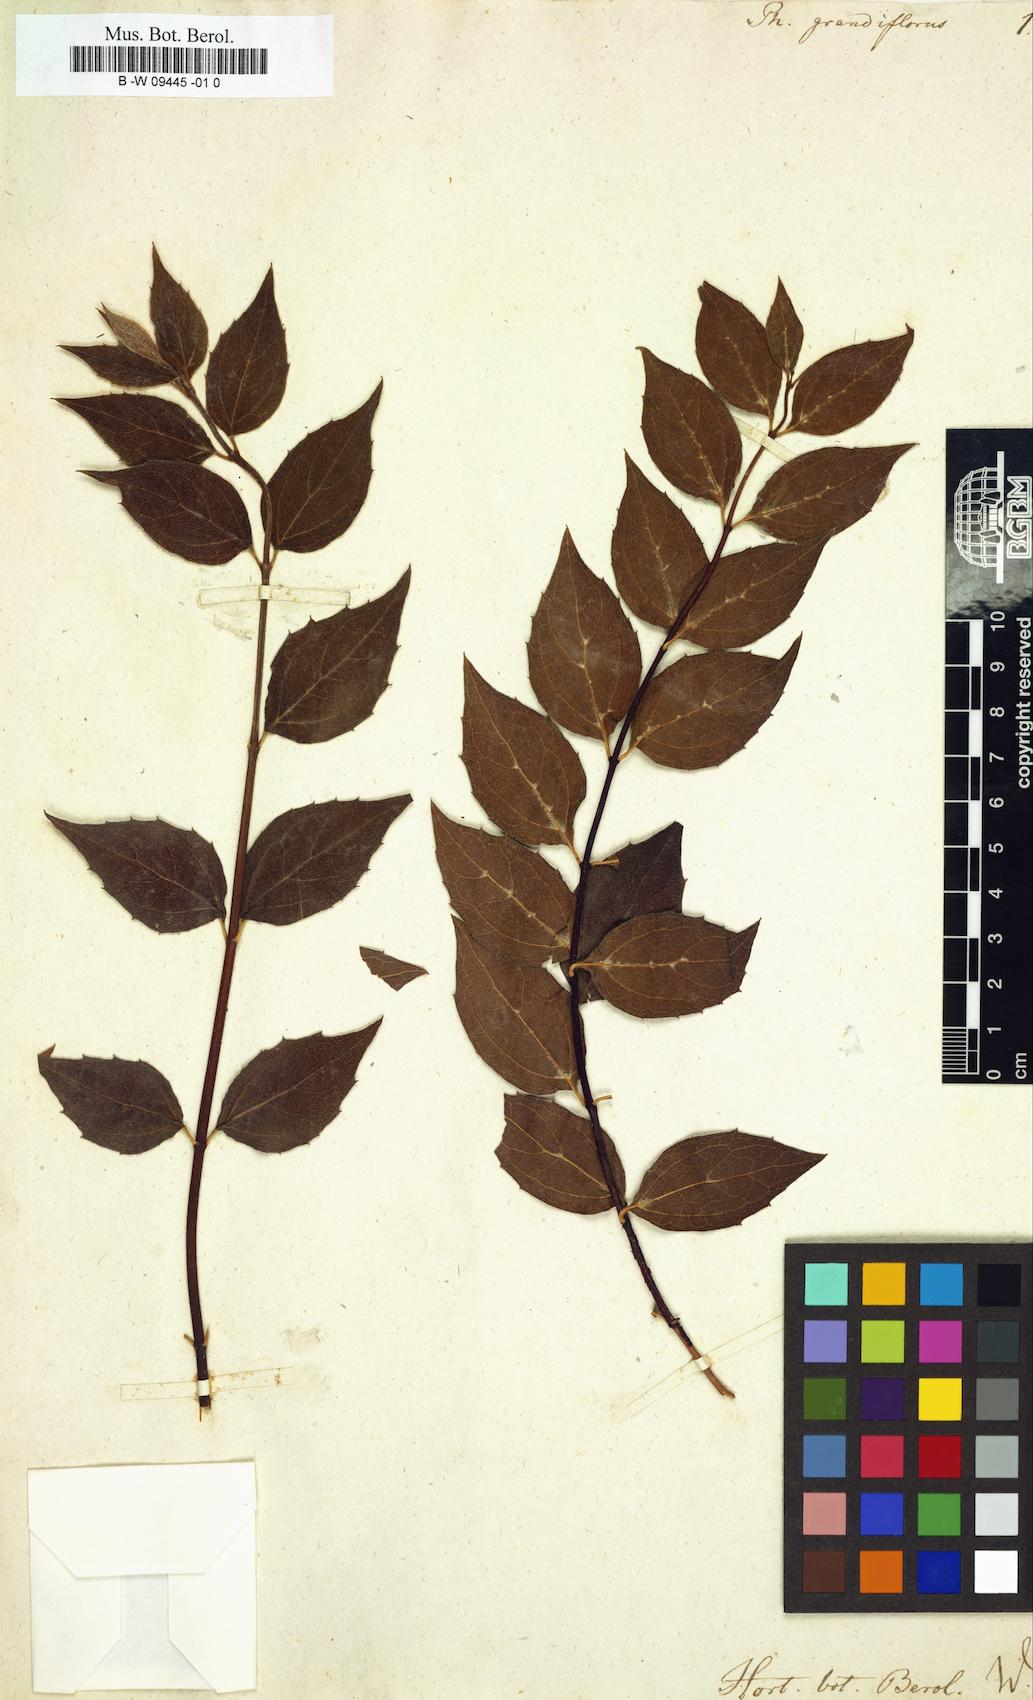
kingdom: Plantae
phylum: Tracheophyta
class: Magnoliopsida
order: Cornales
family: Hydrangeaceae
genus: Philadelphus
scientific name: Philadelphus
